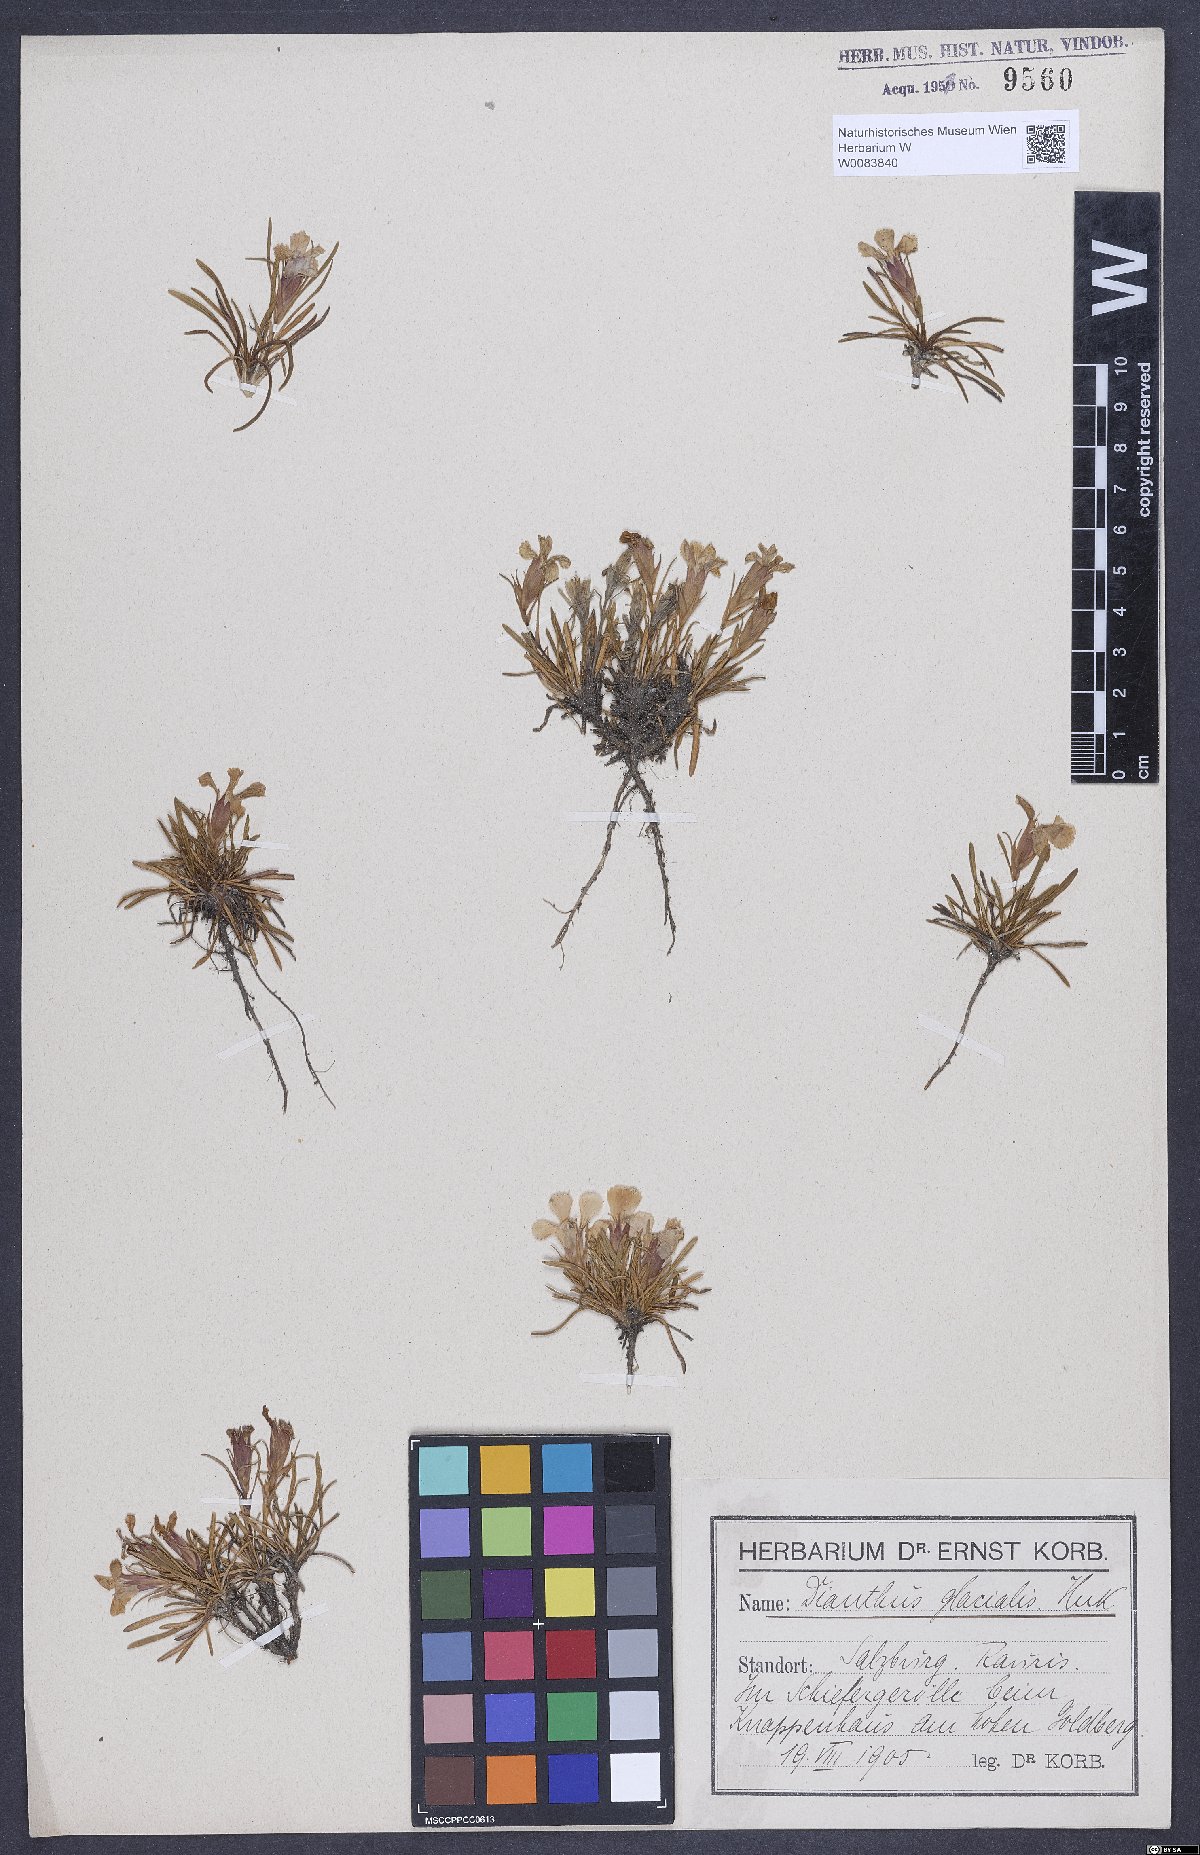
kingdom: Plantae
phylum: Tracheophyta
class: Magnoliopsida
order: Caryophyllales
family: Caryophyllaceae
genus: Dianthus
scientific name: Dianthus glacialis
